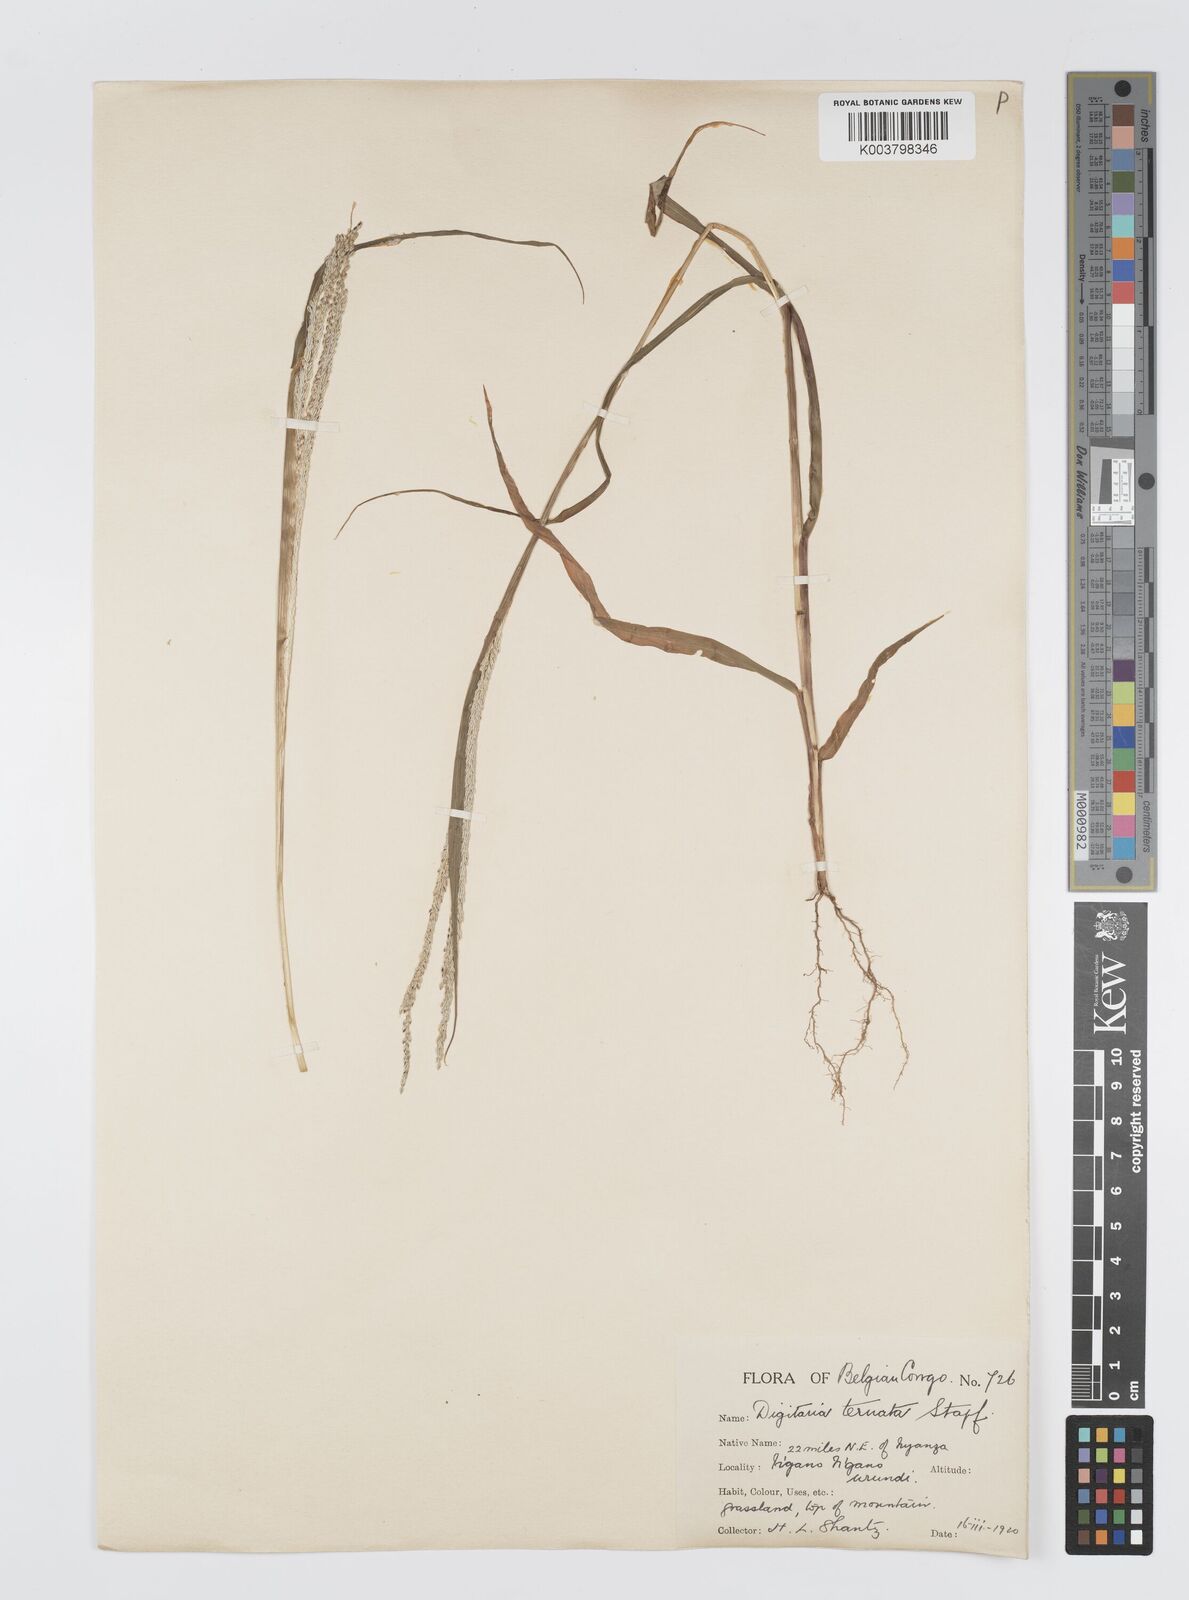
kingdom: Plantae
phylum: Tracheophyta
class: Liliopsida
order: Poales
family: Poaceae
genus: Digitaria
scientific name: Digitaria ternata
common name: Blackseed crabgrass
